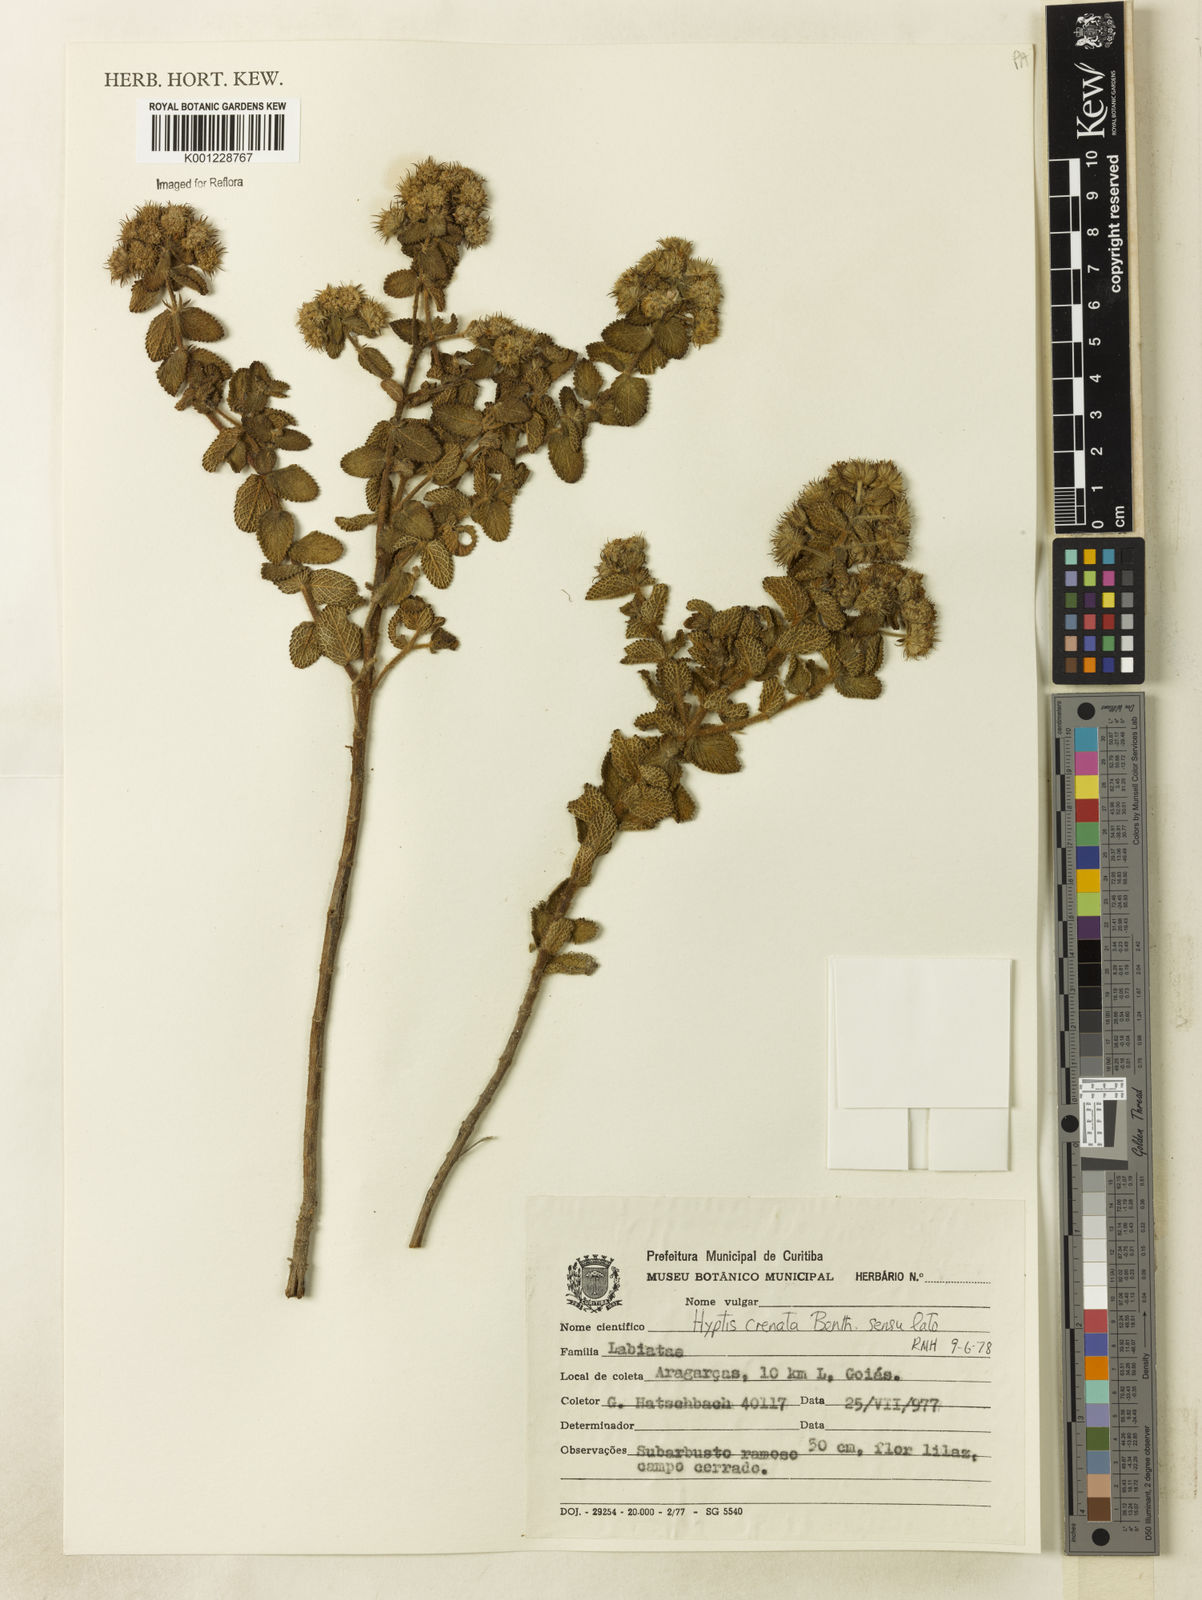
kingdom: Plantae
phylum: Tracheophyta
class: Magnoliopsida
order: Lamiales
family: Lamiaceae
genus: Hyptis
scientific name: Hyptis crenata
